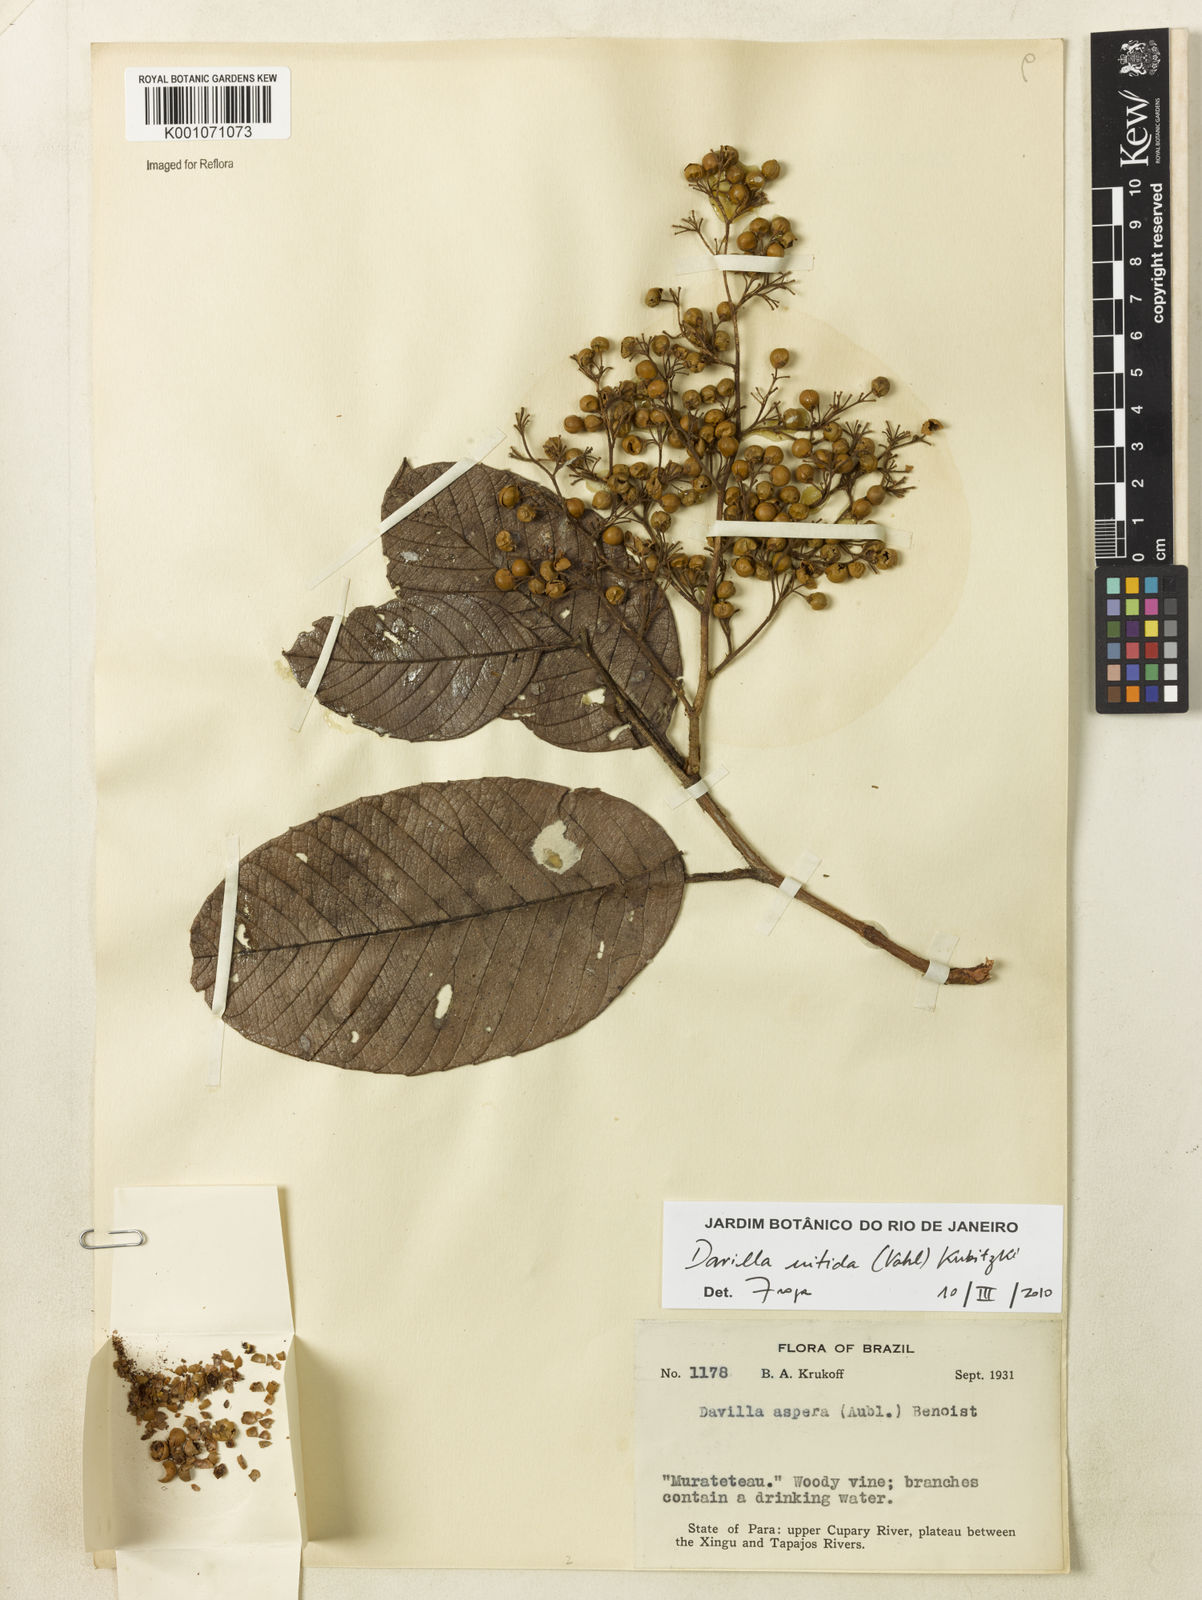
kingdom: Plantae
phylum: Tracheophyta
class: Magnoliopsida
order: Dilleniales
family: Dilleniaceae
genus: Davilla
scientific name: Davilla kunthii
